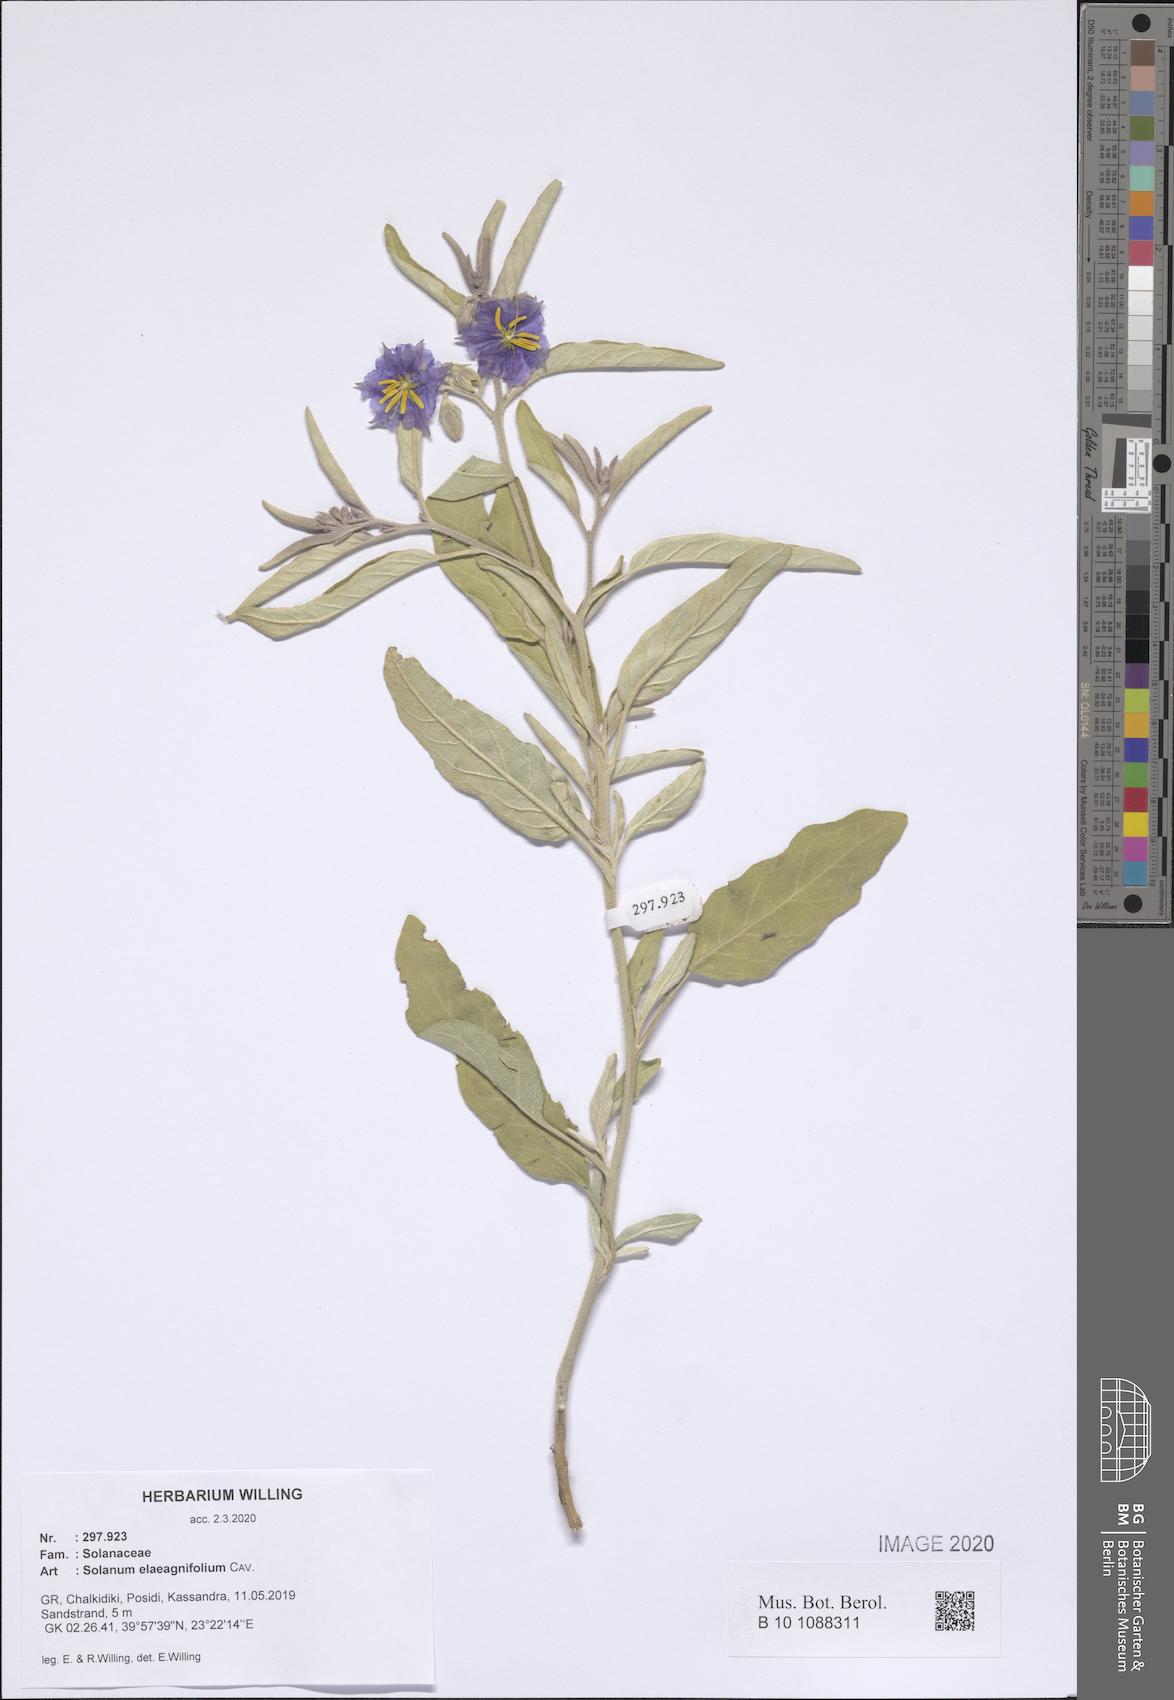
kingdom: Plantae
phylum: Tracheophyta
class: Magnoliopsida
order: Solanales
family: Solanaceae
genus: Solanum
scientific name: Solanum elaeagnifolium
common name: Silverleaf nightshade
